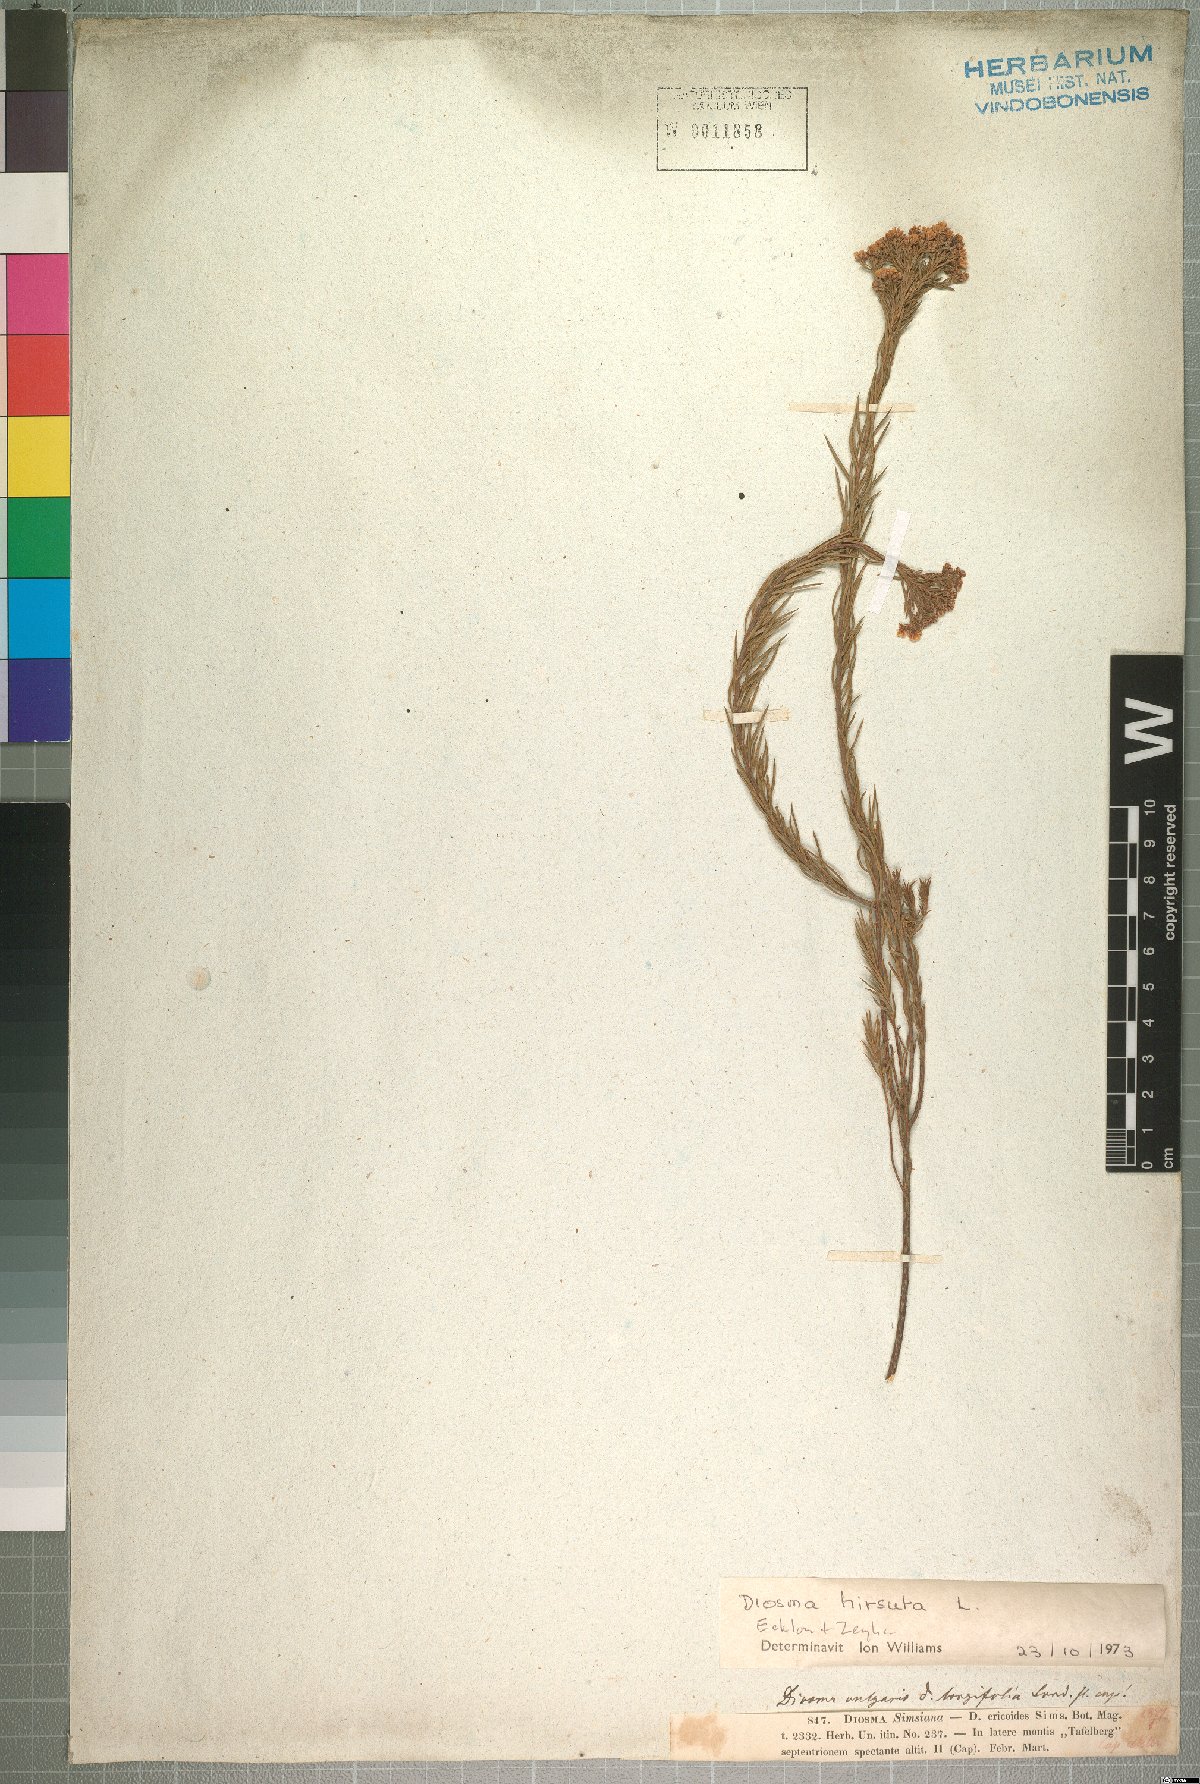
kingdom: Plantae
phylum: Tracheophyta
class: Magnoliopsida
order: Sapindales
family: Rutaceae
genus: Diosma
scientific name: Diosma hirsuta
